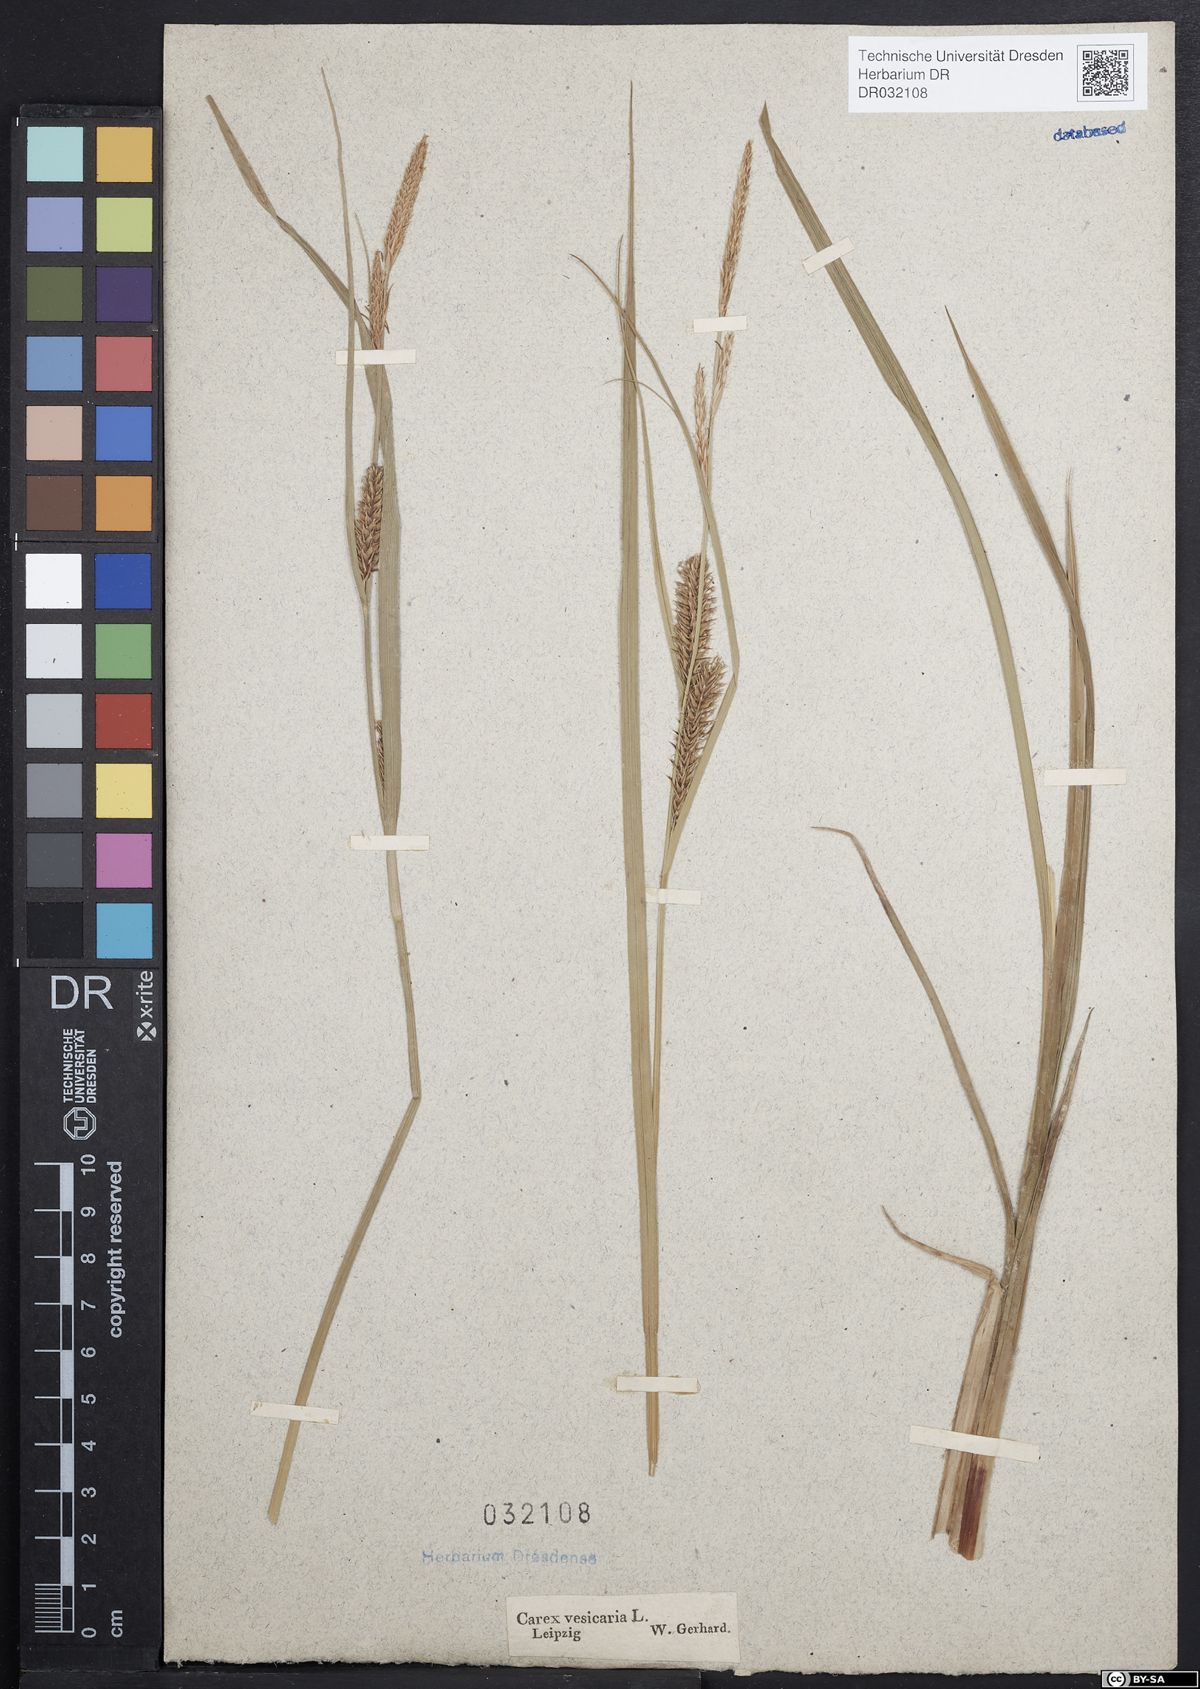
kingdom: Plantae
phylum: Tracheophyta
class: Liliopsida
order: Poales
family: Cyperaceae
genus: Carex
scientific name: Carex vesicaria
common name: Bladder-sedge
